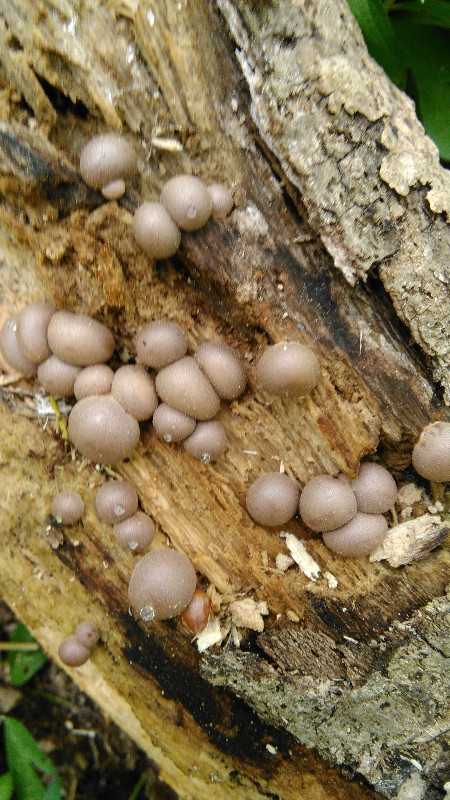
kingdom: Protozoa
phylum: Mycetozoa
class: Myxomycetes
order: Cribrariales
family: Tubiferaceae
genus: Lycogala
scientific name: Lycogala epidendrum
